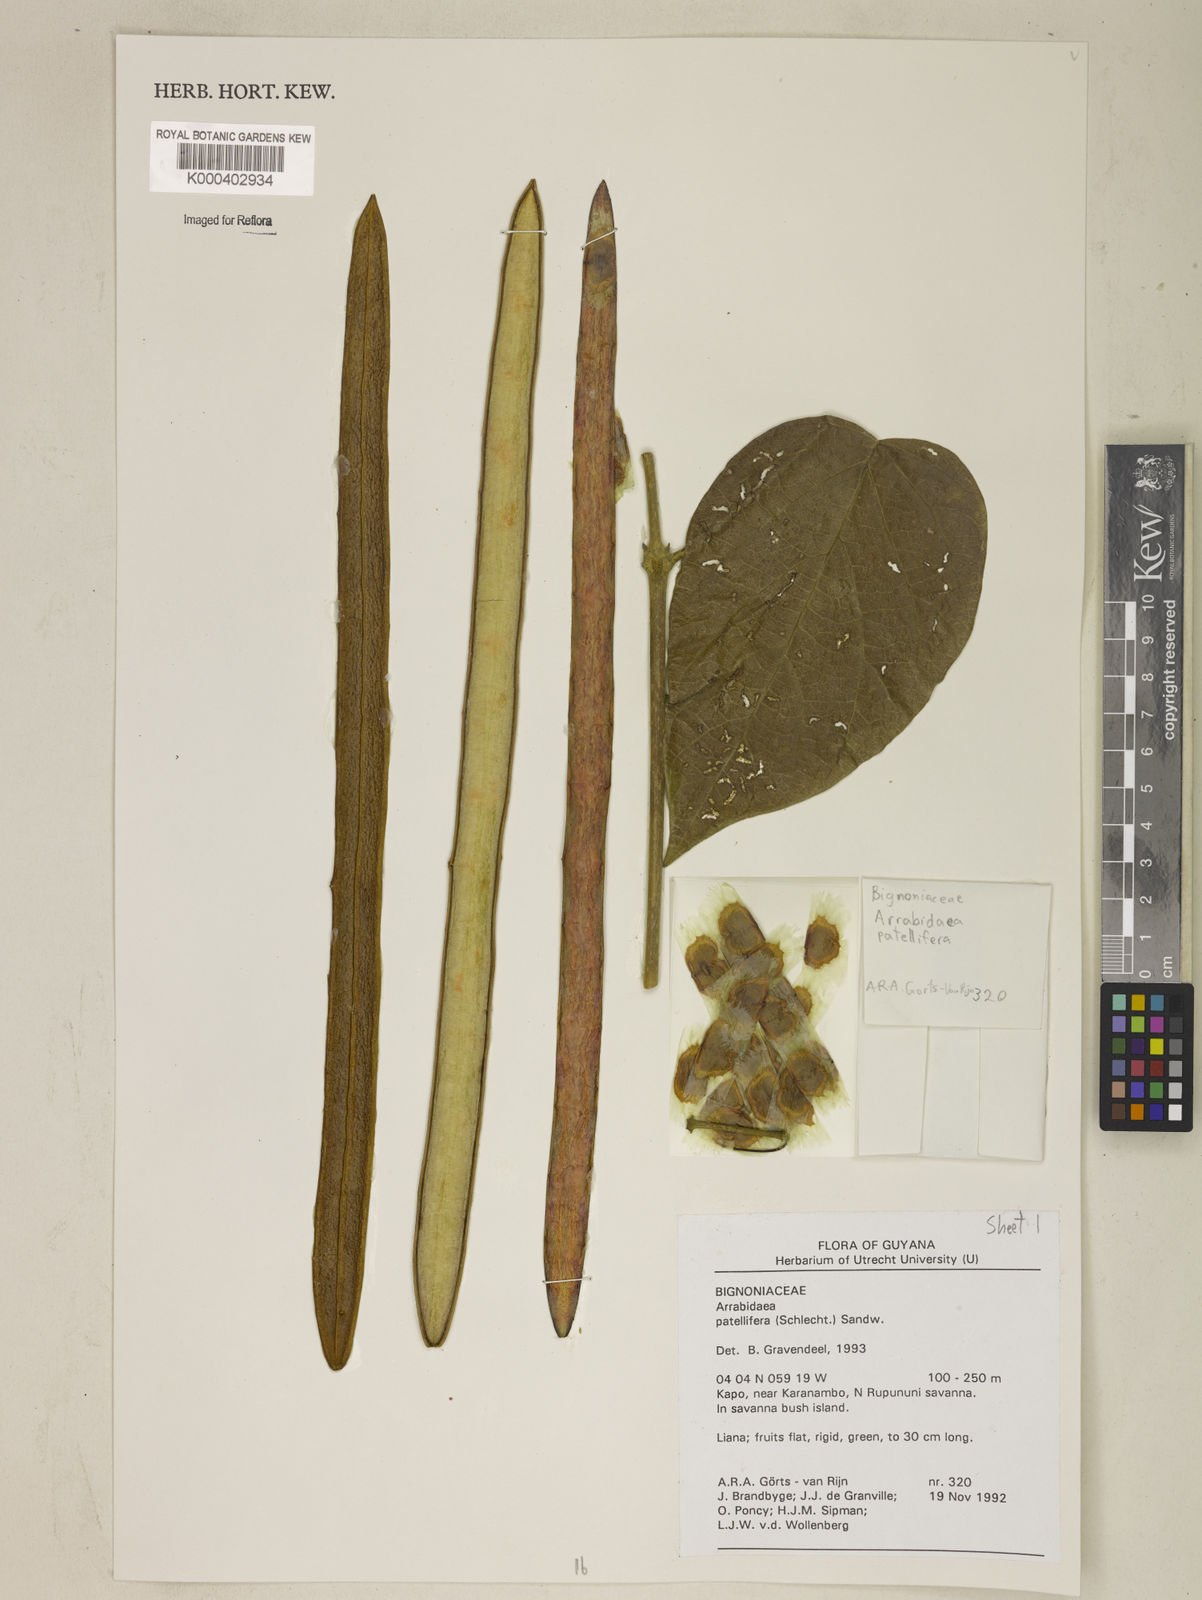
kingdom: Plantae
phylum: Tracheophyta
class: Magnoliopsida
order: Lamiales
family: Bignoniaceae
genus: Fridericia
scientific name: Fridericia patellifera
